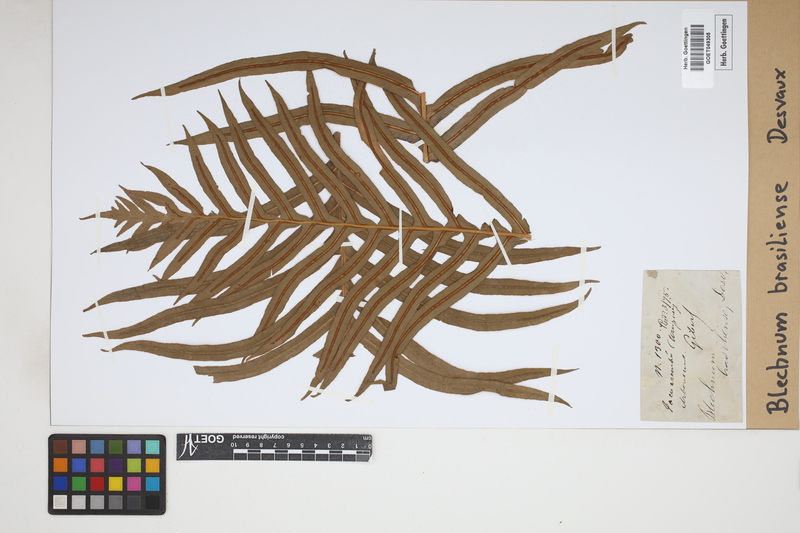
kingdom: Plantae
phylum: Tracheophyta
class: Polypodiopsida
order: Polypodiales
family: Blechnaceae
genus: Neoblechnum
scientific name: Neoblechnum brasiliense
